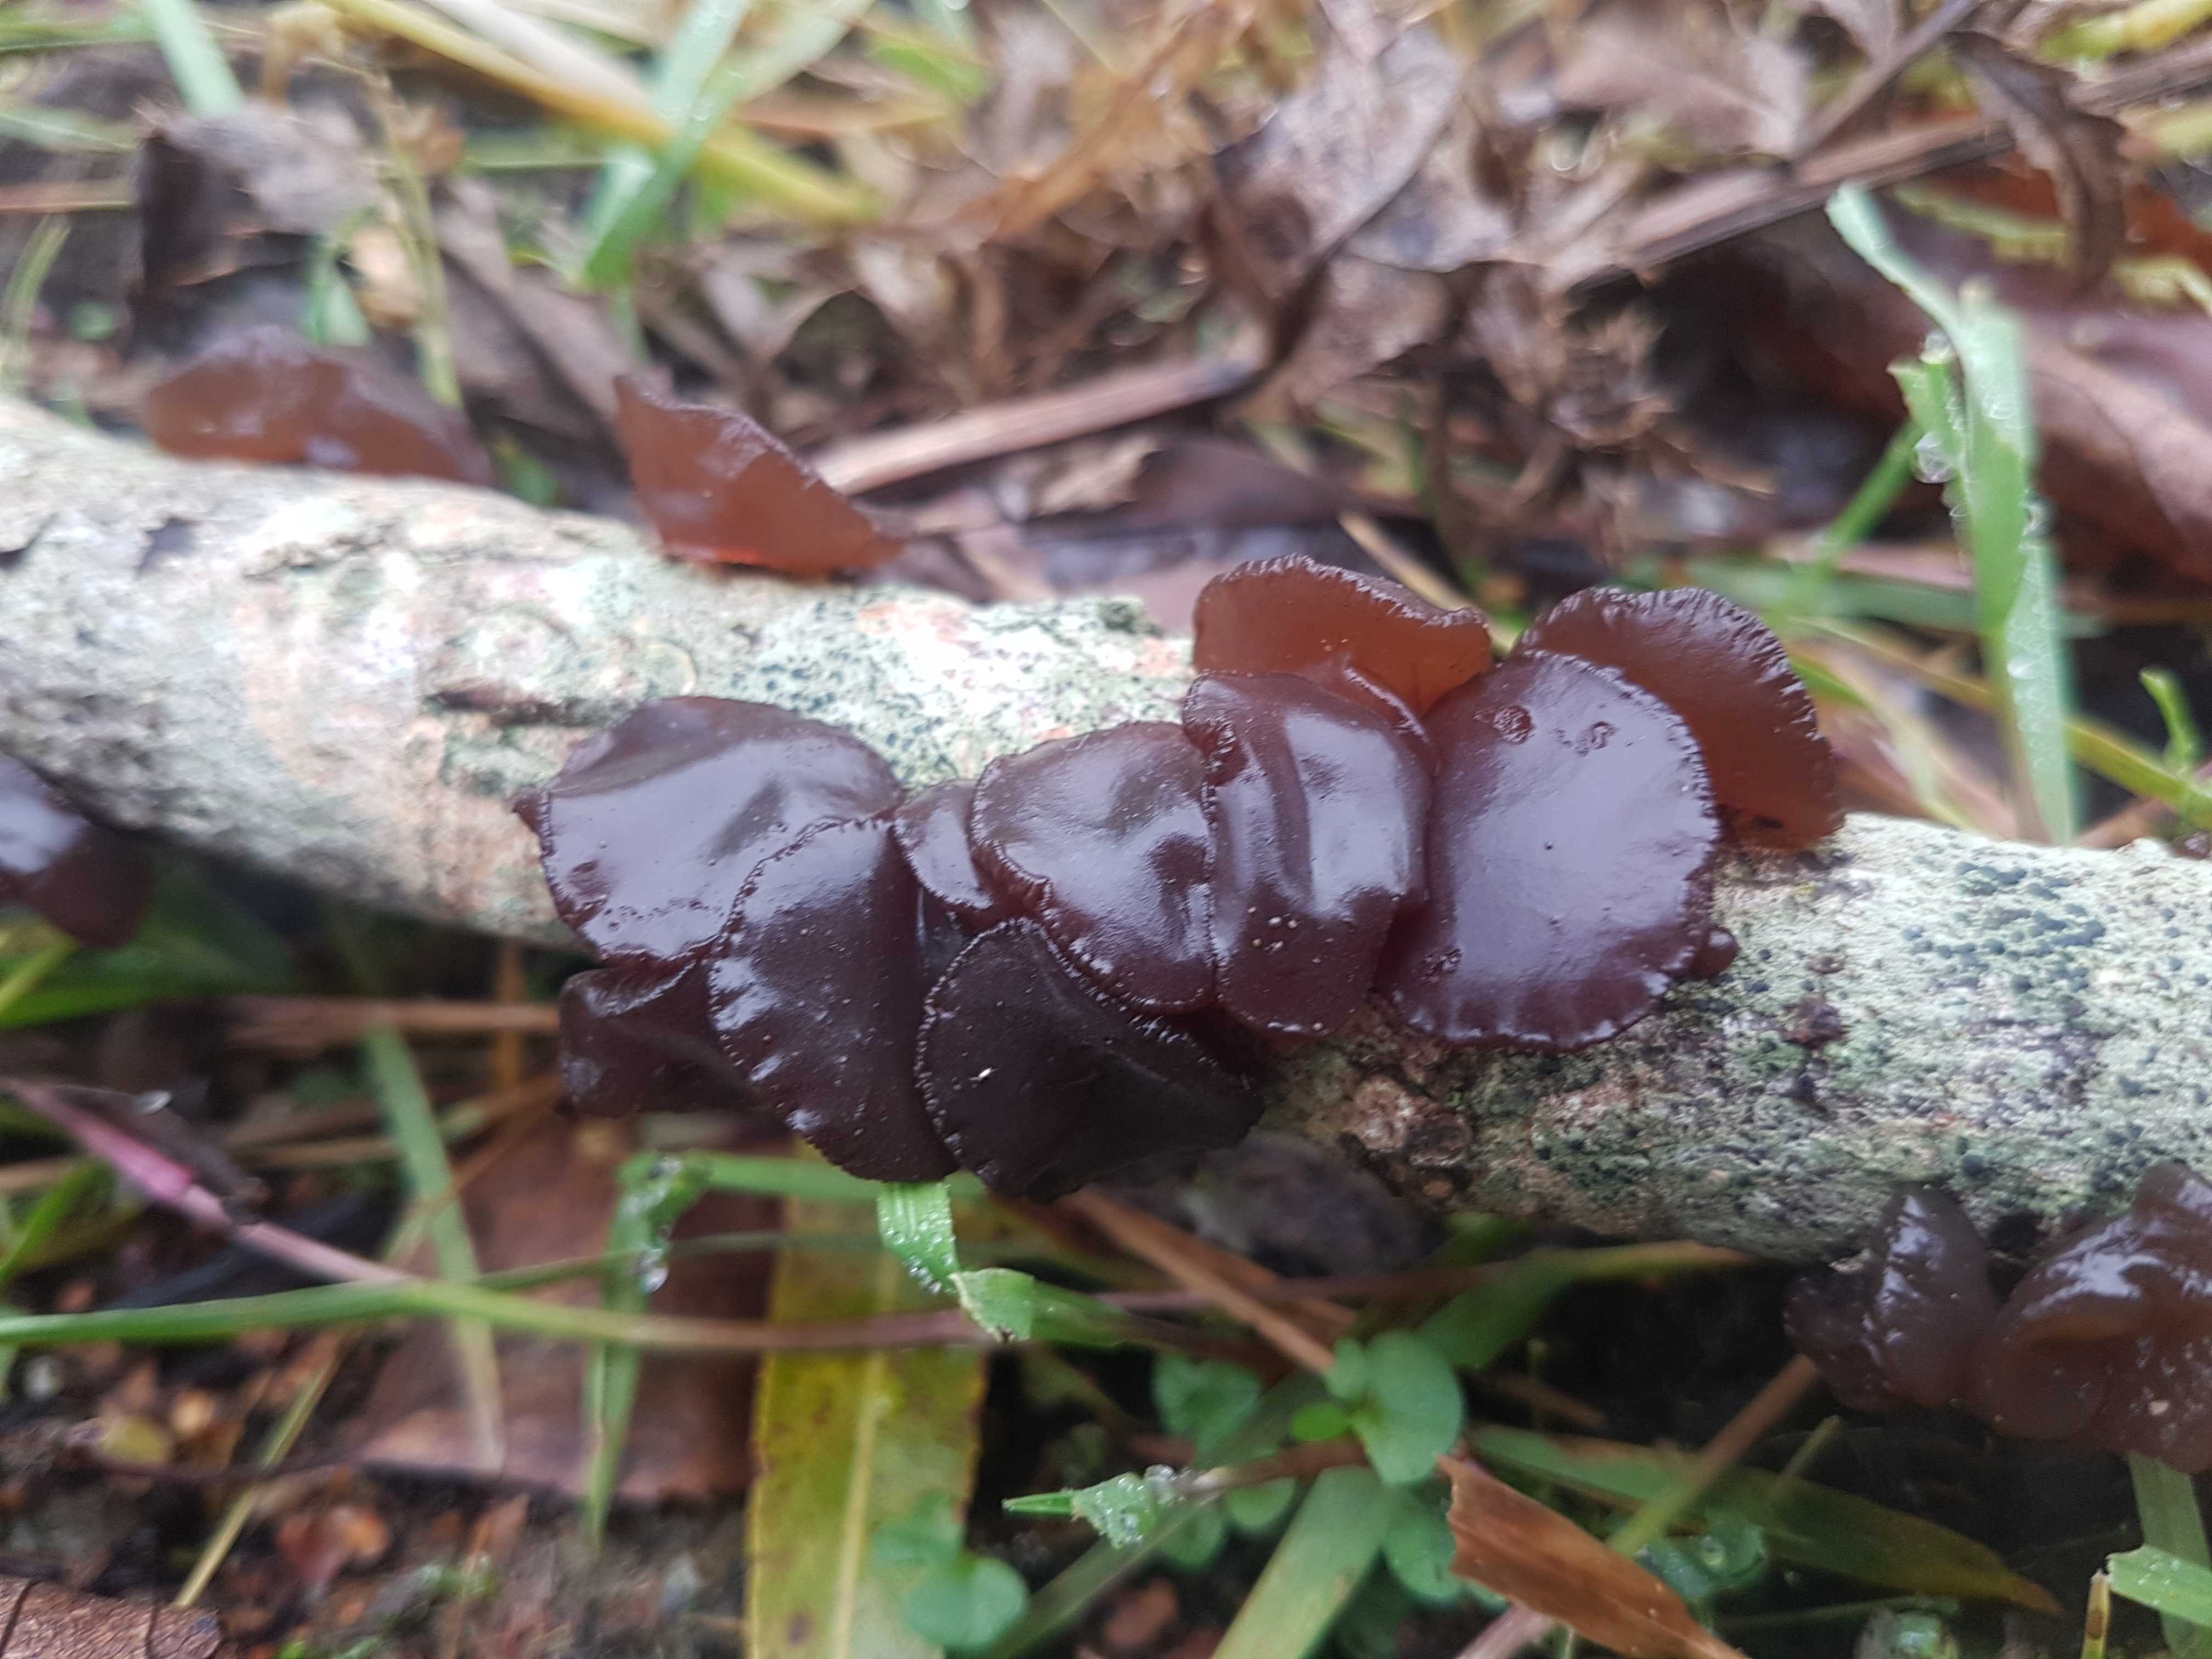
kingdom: Fungi
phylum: Basidiomycota
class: Agaricomycetes
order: Auriculariales
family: Auriculariaceae
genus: Exidia
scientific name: Exidia recisa
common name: pile-bævretop
